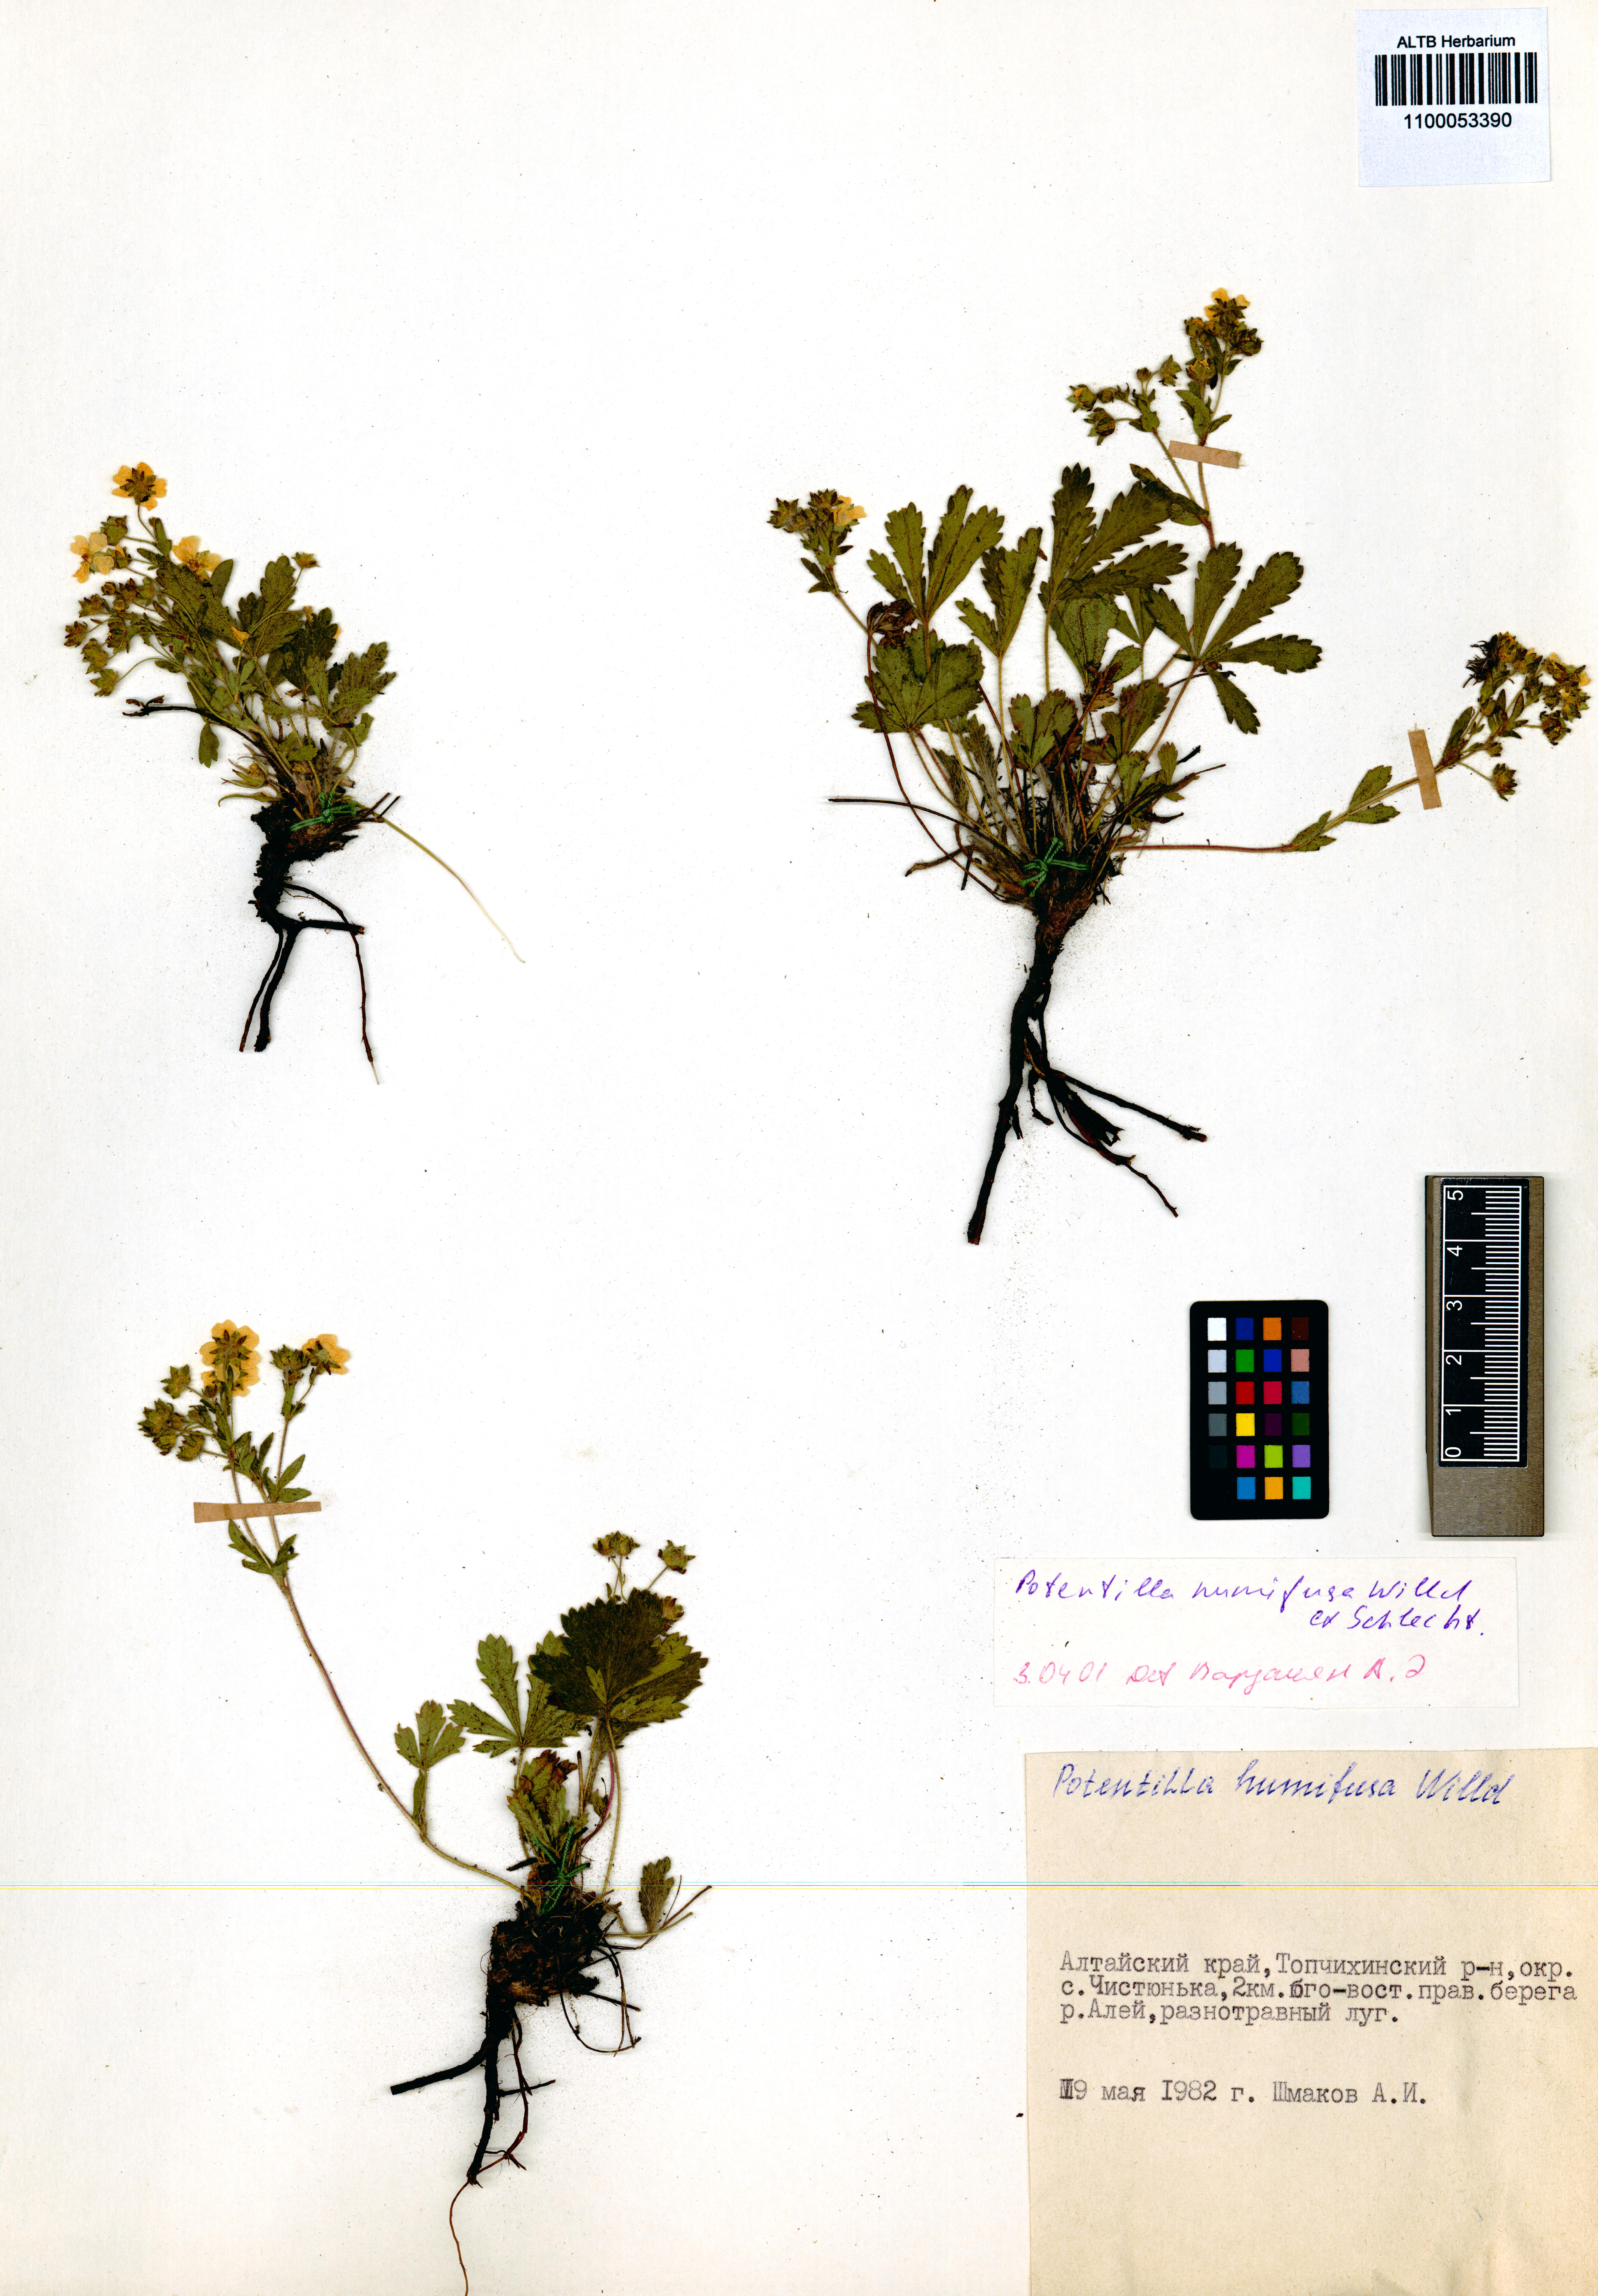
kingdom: Plantae
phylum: Tracheophyta
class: Magnoliopsida
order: Rosales
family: Rosaceae
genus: Potentilla
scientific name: Potentilla humifusa
